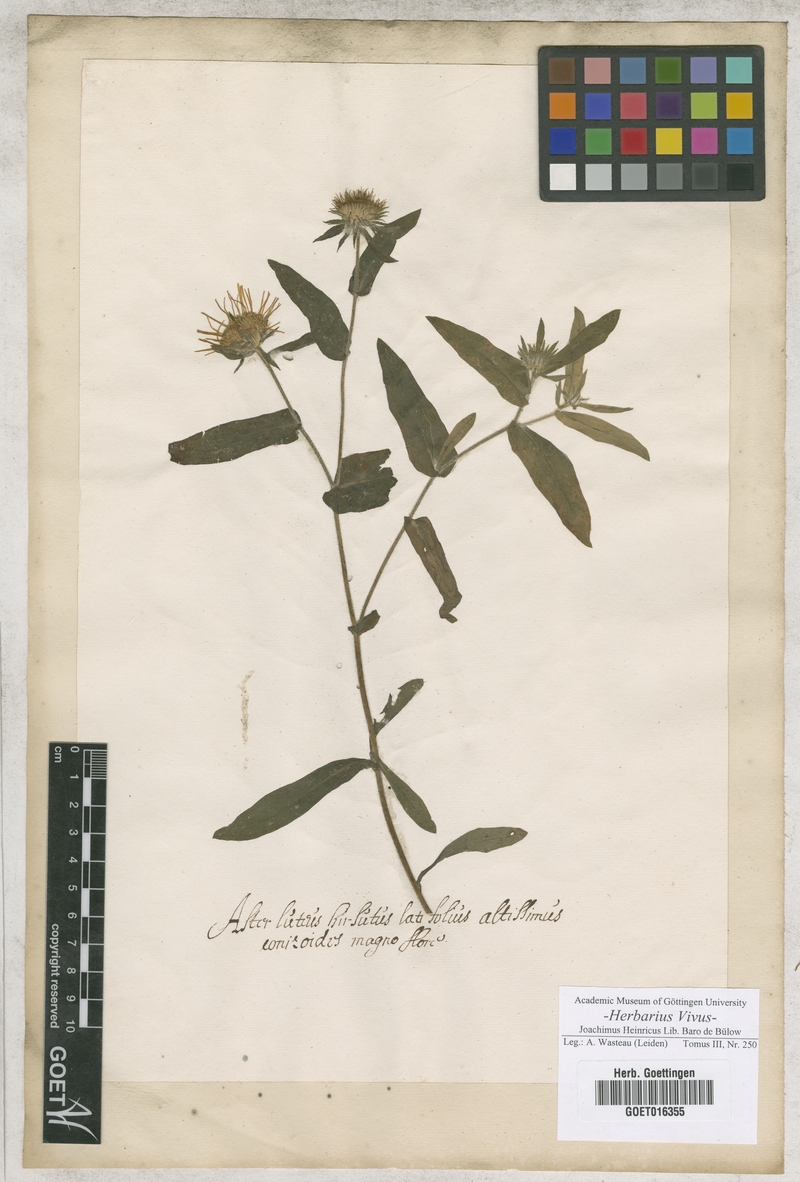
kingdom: Plantae
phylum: Tracheophyta
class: Magnoliopsida
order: Asterales
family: Asteraceae
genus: Aster
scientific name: Aster
